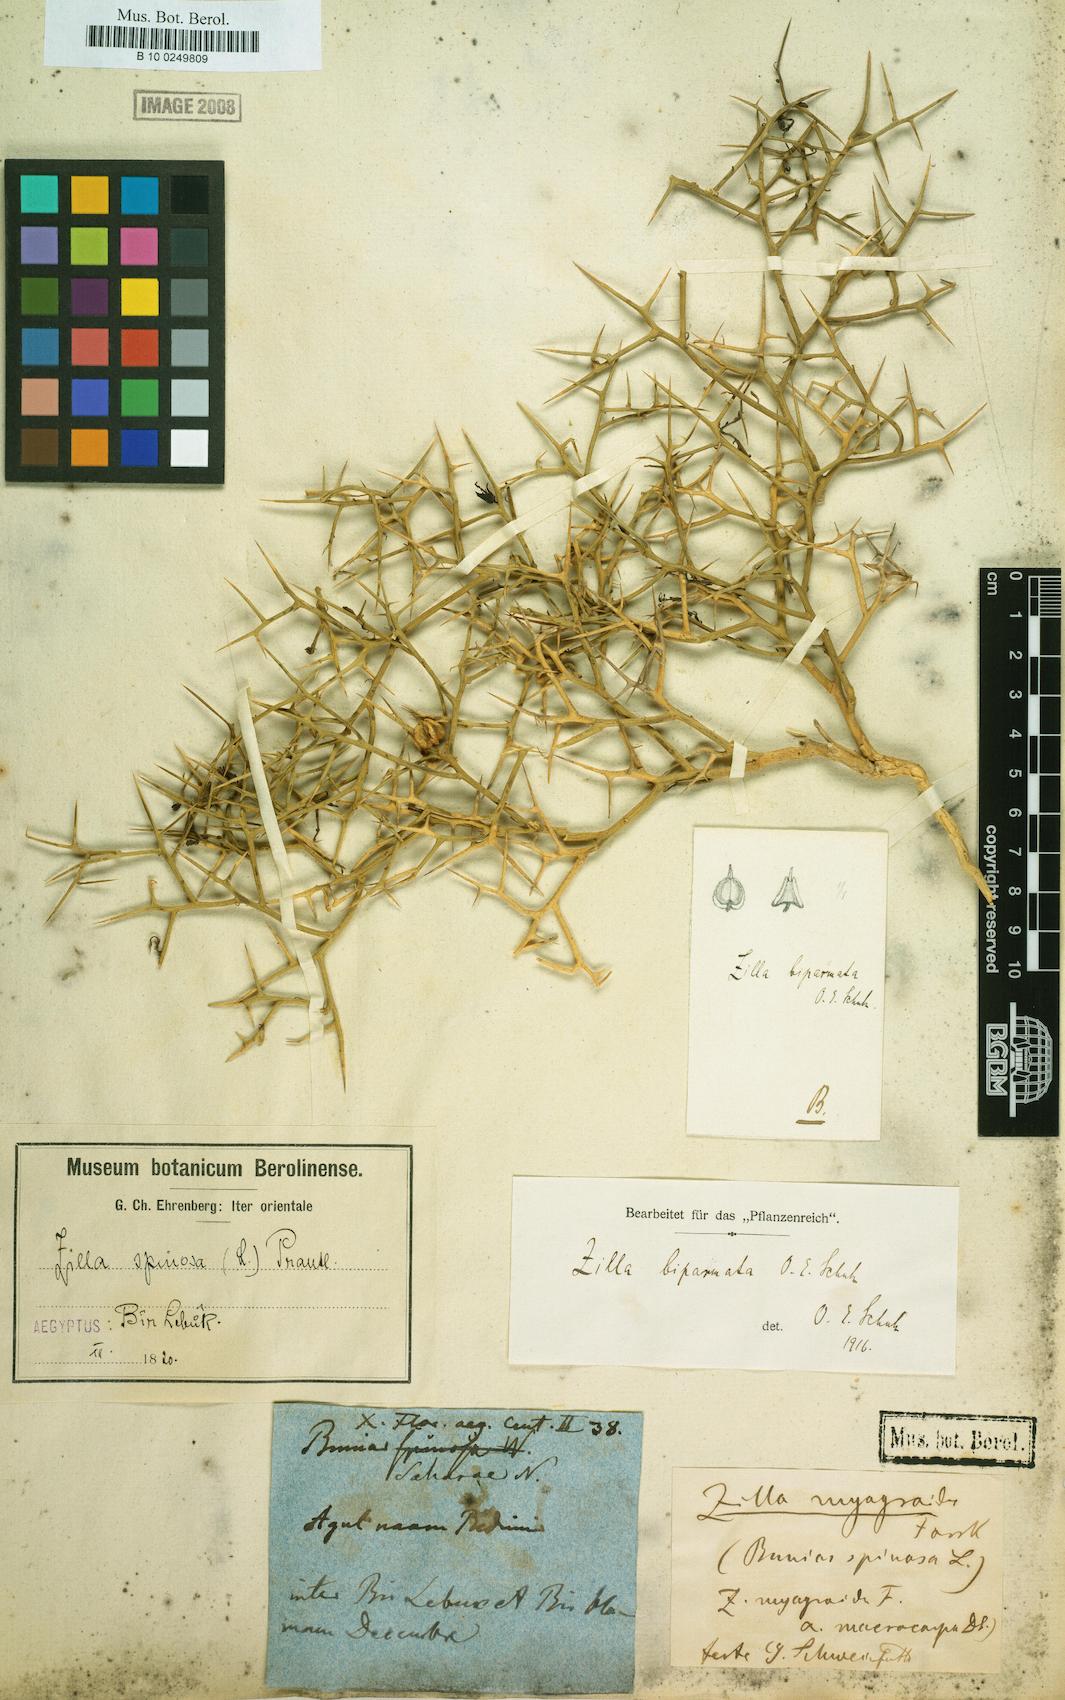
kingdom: Plantae
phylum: Tracheophyta
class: Magnoliopsida
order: Brassicales
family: Brassicaceae
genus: Zilla
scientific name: Zilla spinosa
